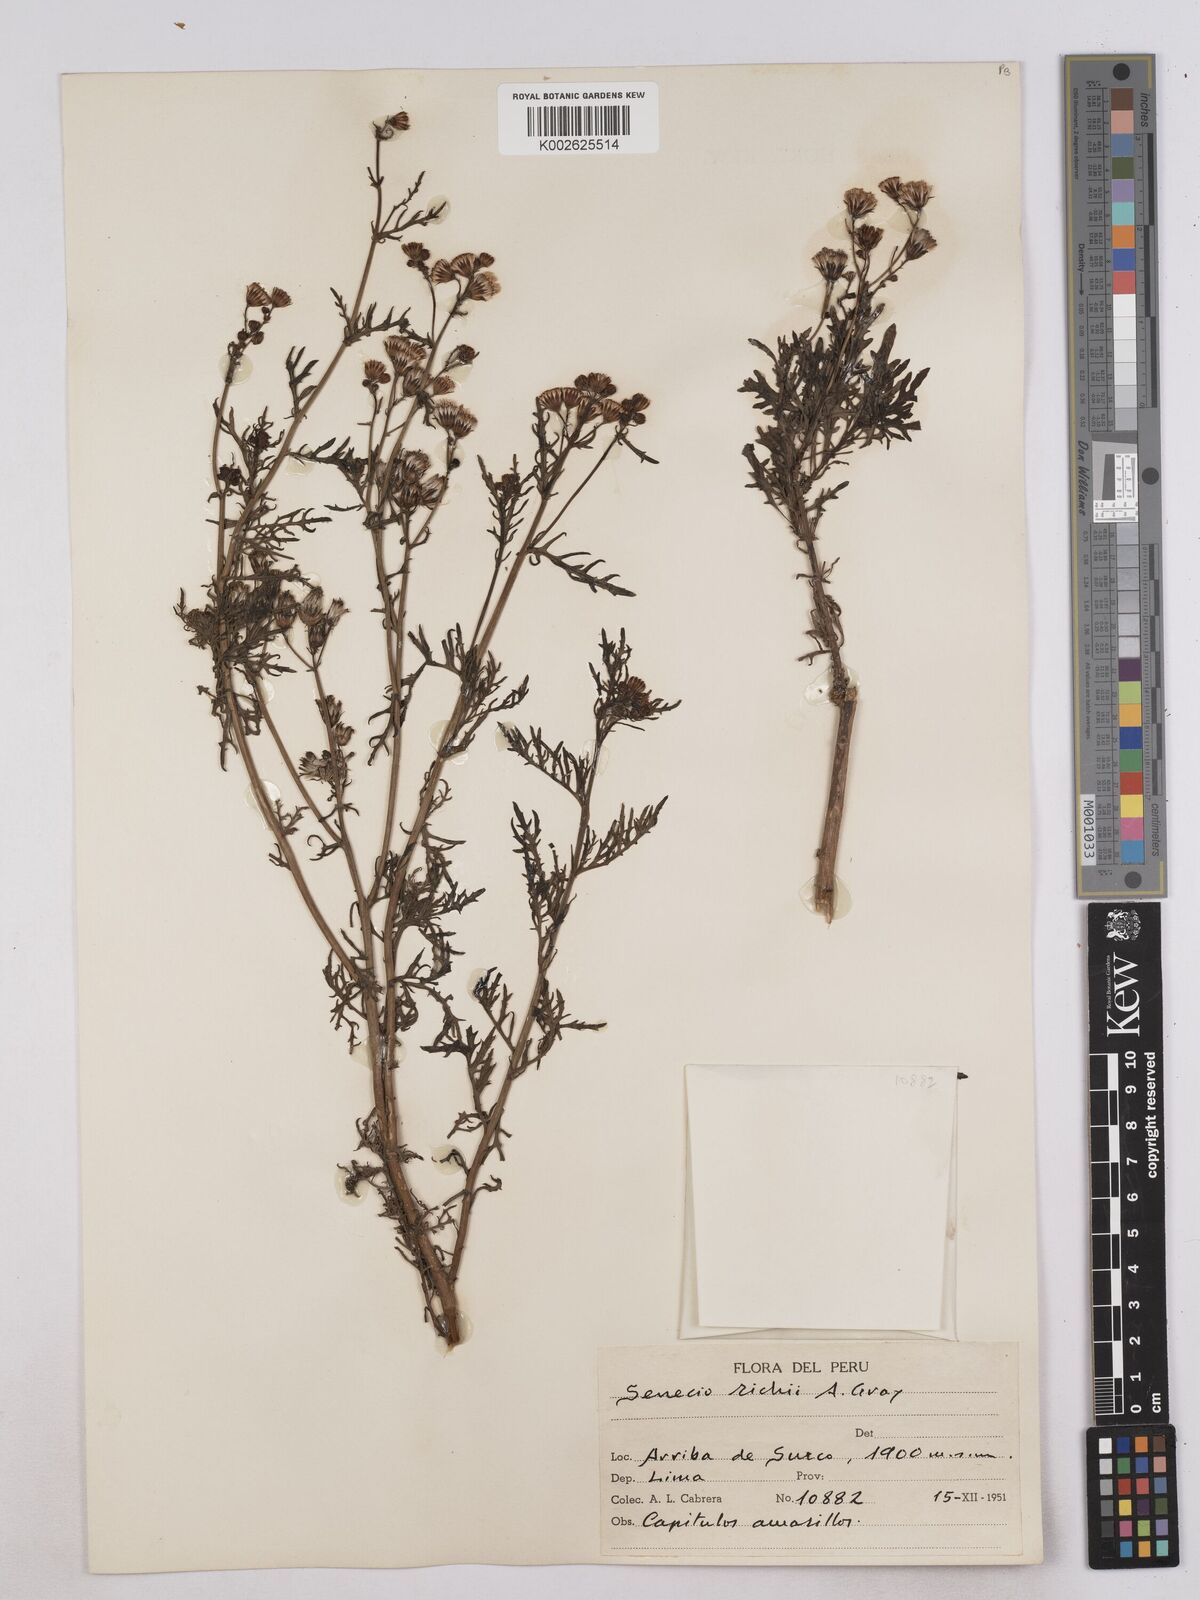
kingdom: Plantae
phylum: Tracheophyta
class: Magnoliopsida
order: Asterales
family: Asteraceae
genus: Senecio
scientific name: Senecio richii
